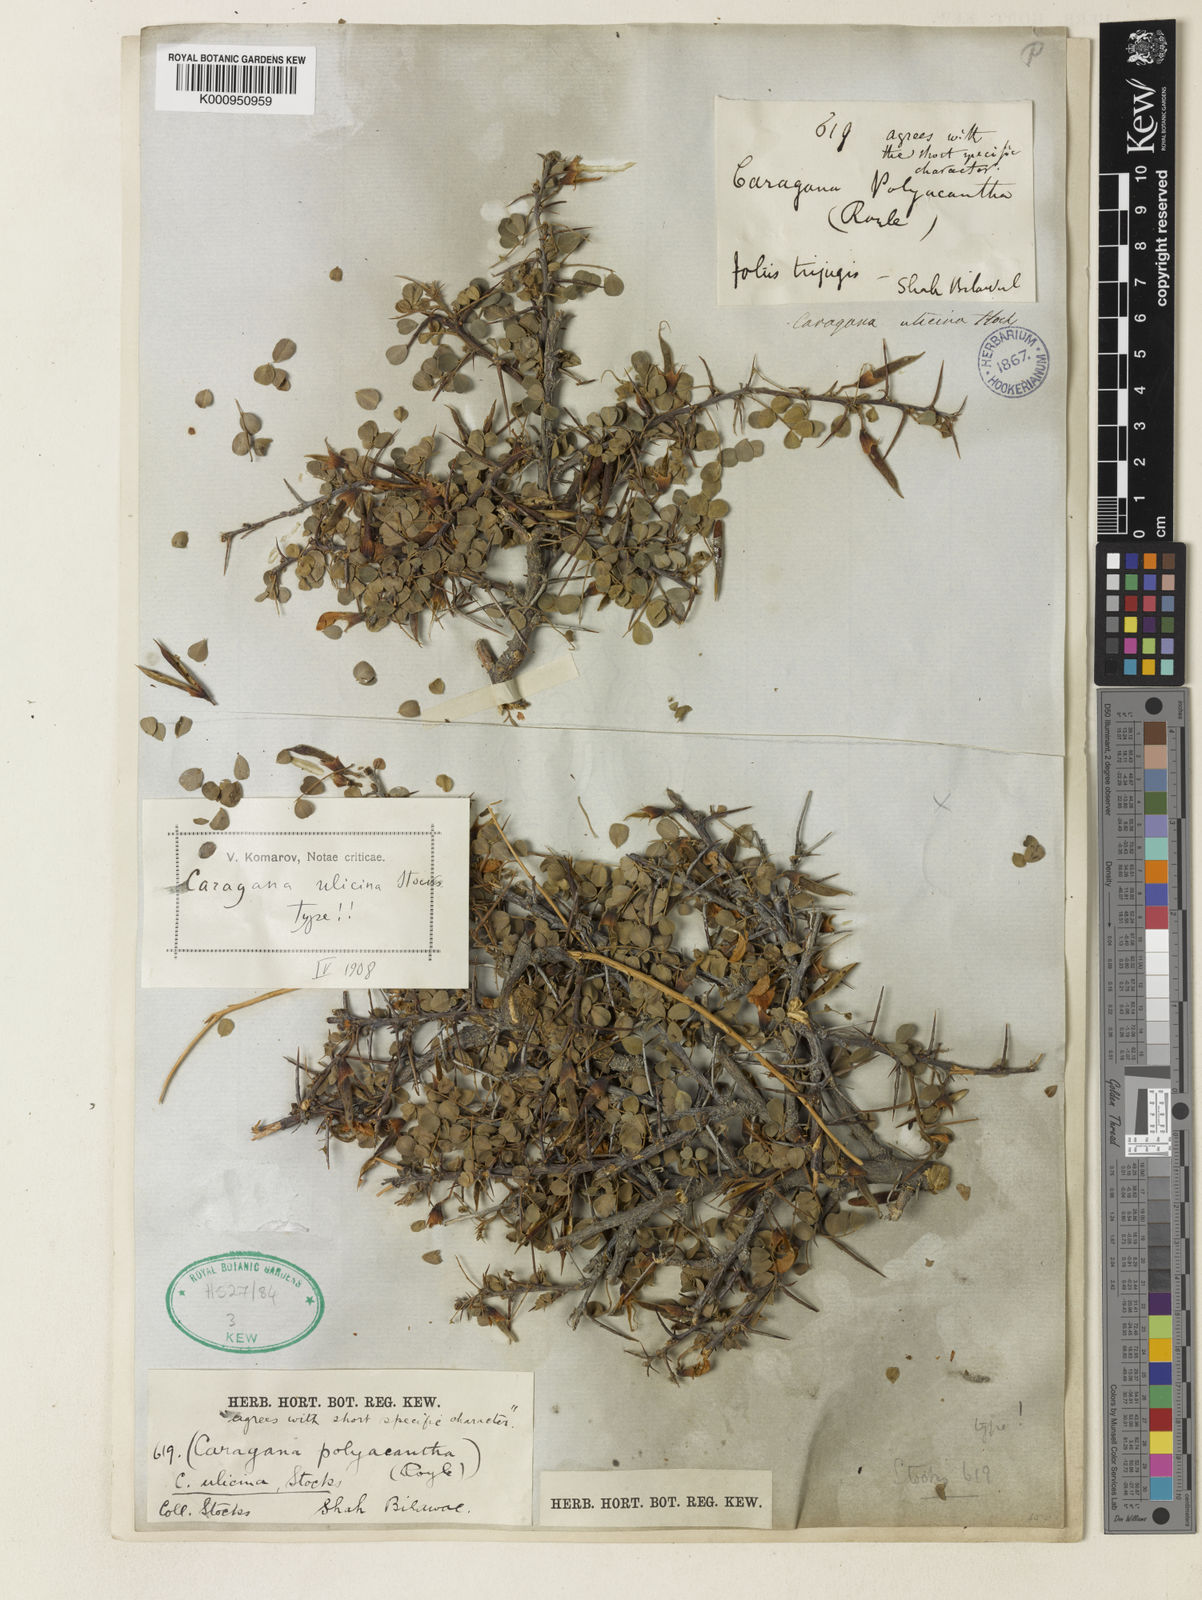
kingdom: Plantae
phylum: Tracheophyta
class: Magnoliopsida
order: Fabales
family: Fabaceae
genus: Caragana
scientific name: Caragana ulicina
